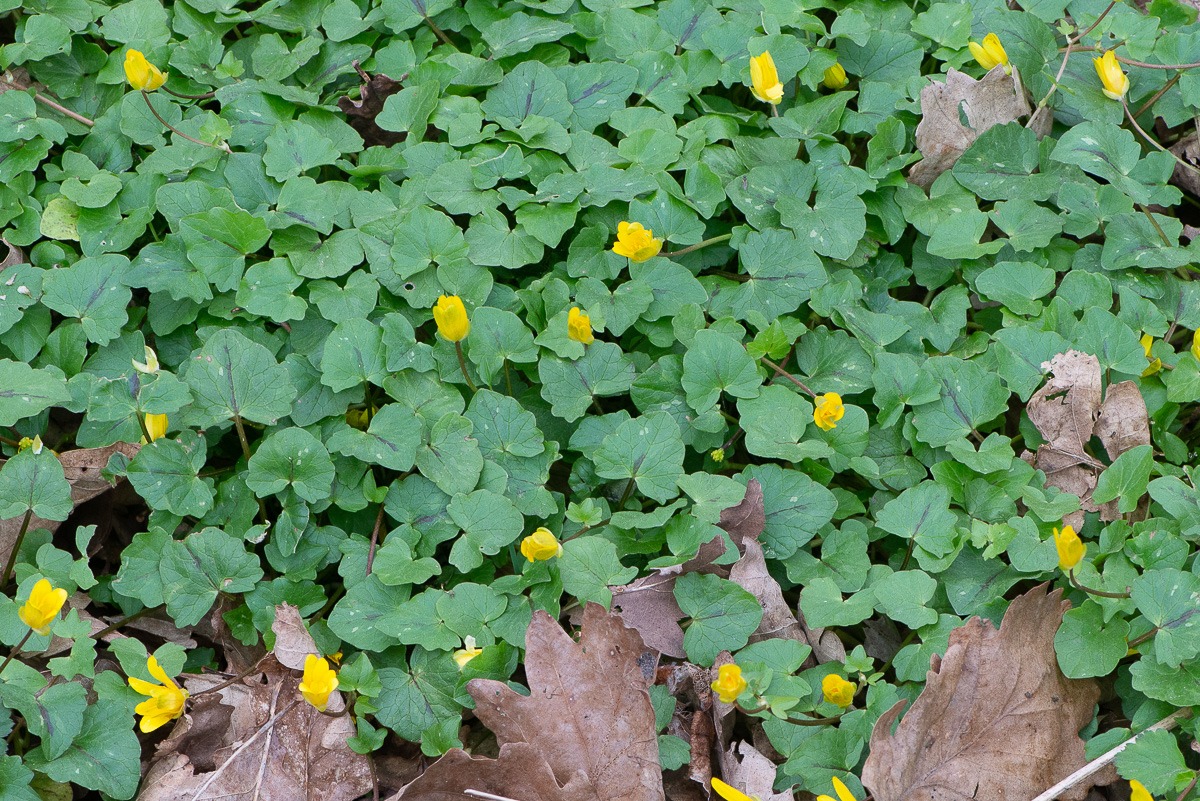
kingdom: Plantae
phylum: Tracheophyta
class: Magnoliopsida
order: Ranunculales
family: Ranunculaceae
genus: Ficaria
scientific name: Ficaria verna
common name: Vorterod
